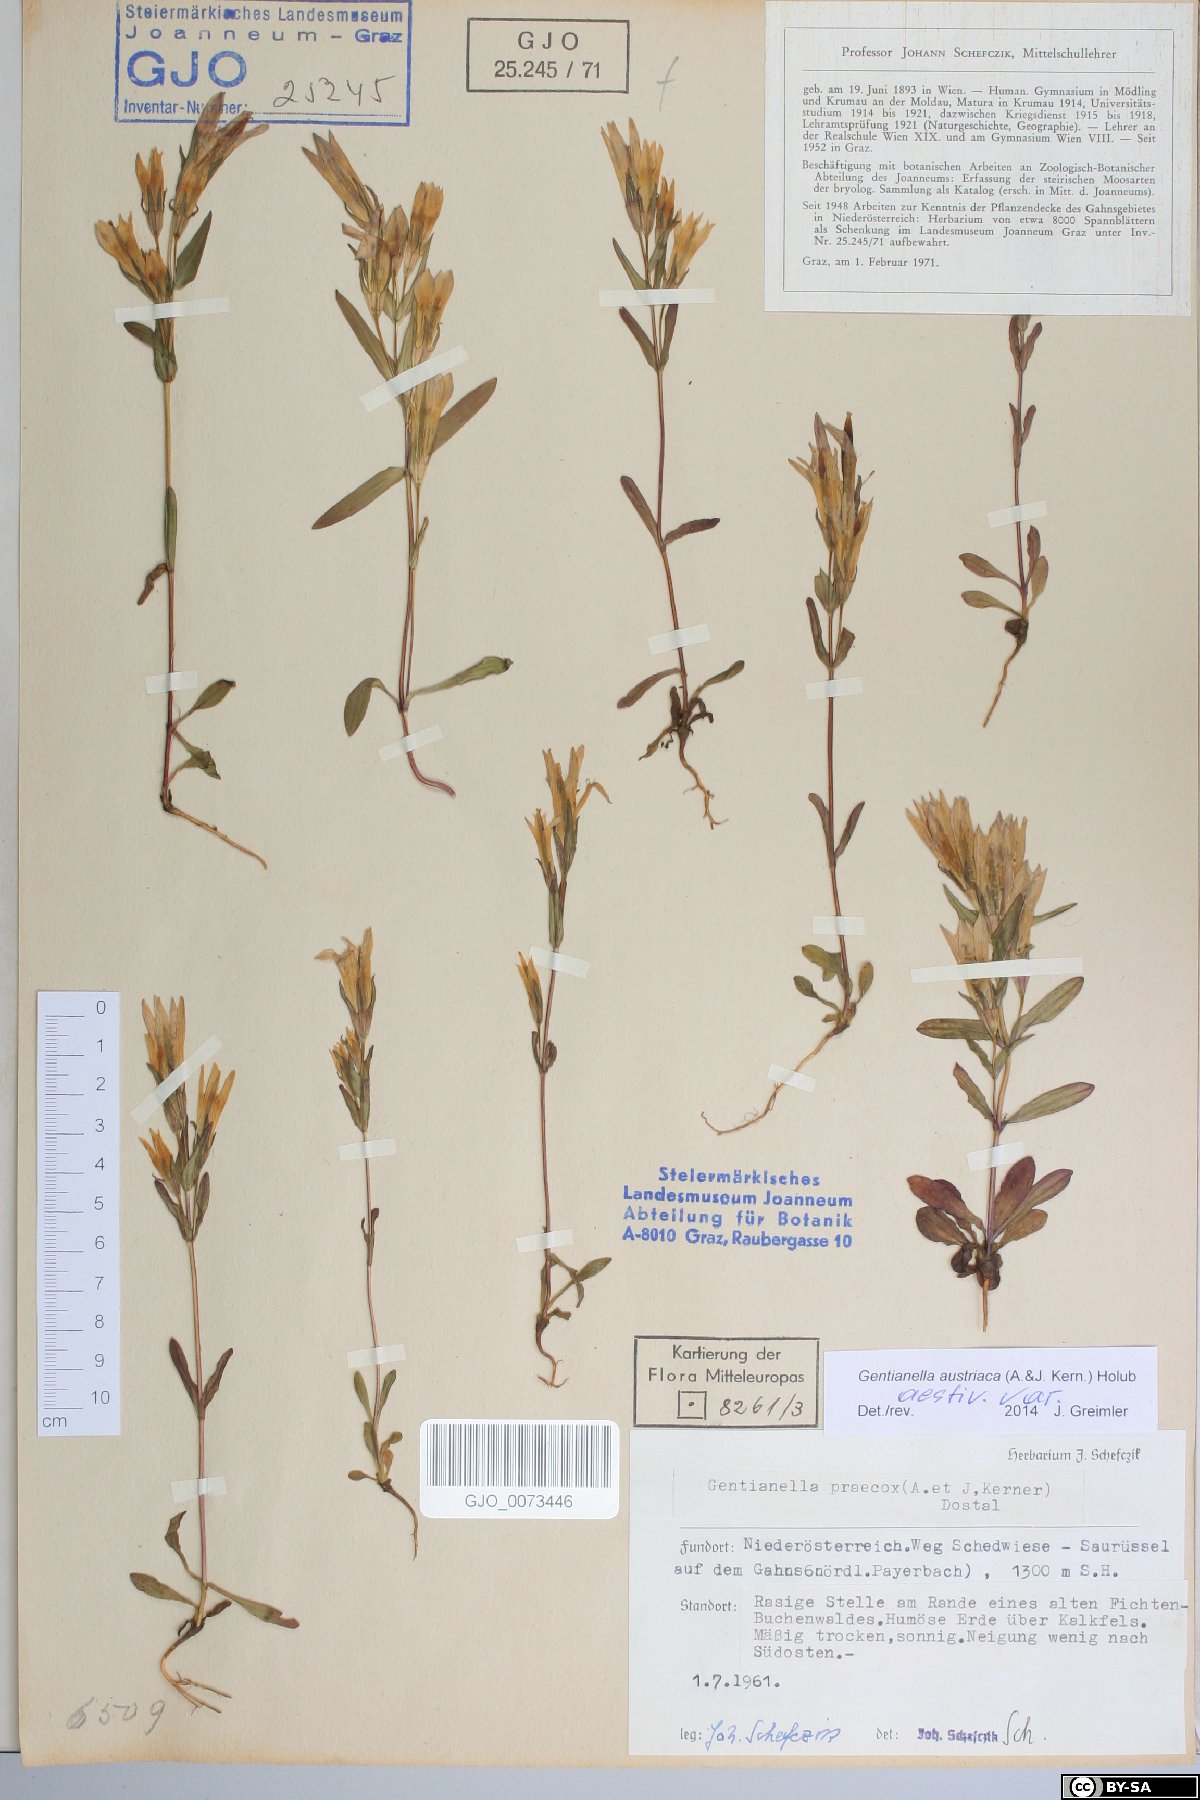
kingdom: Plantae
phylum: Tracheophyta
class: Magnoliopsida
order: Gentianales
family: Gentianaceae
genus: Gentianella
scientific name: Gentianella austriaca
